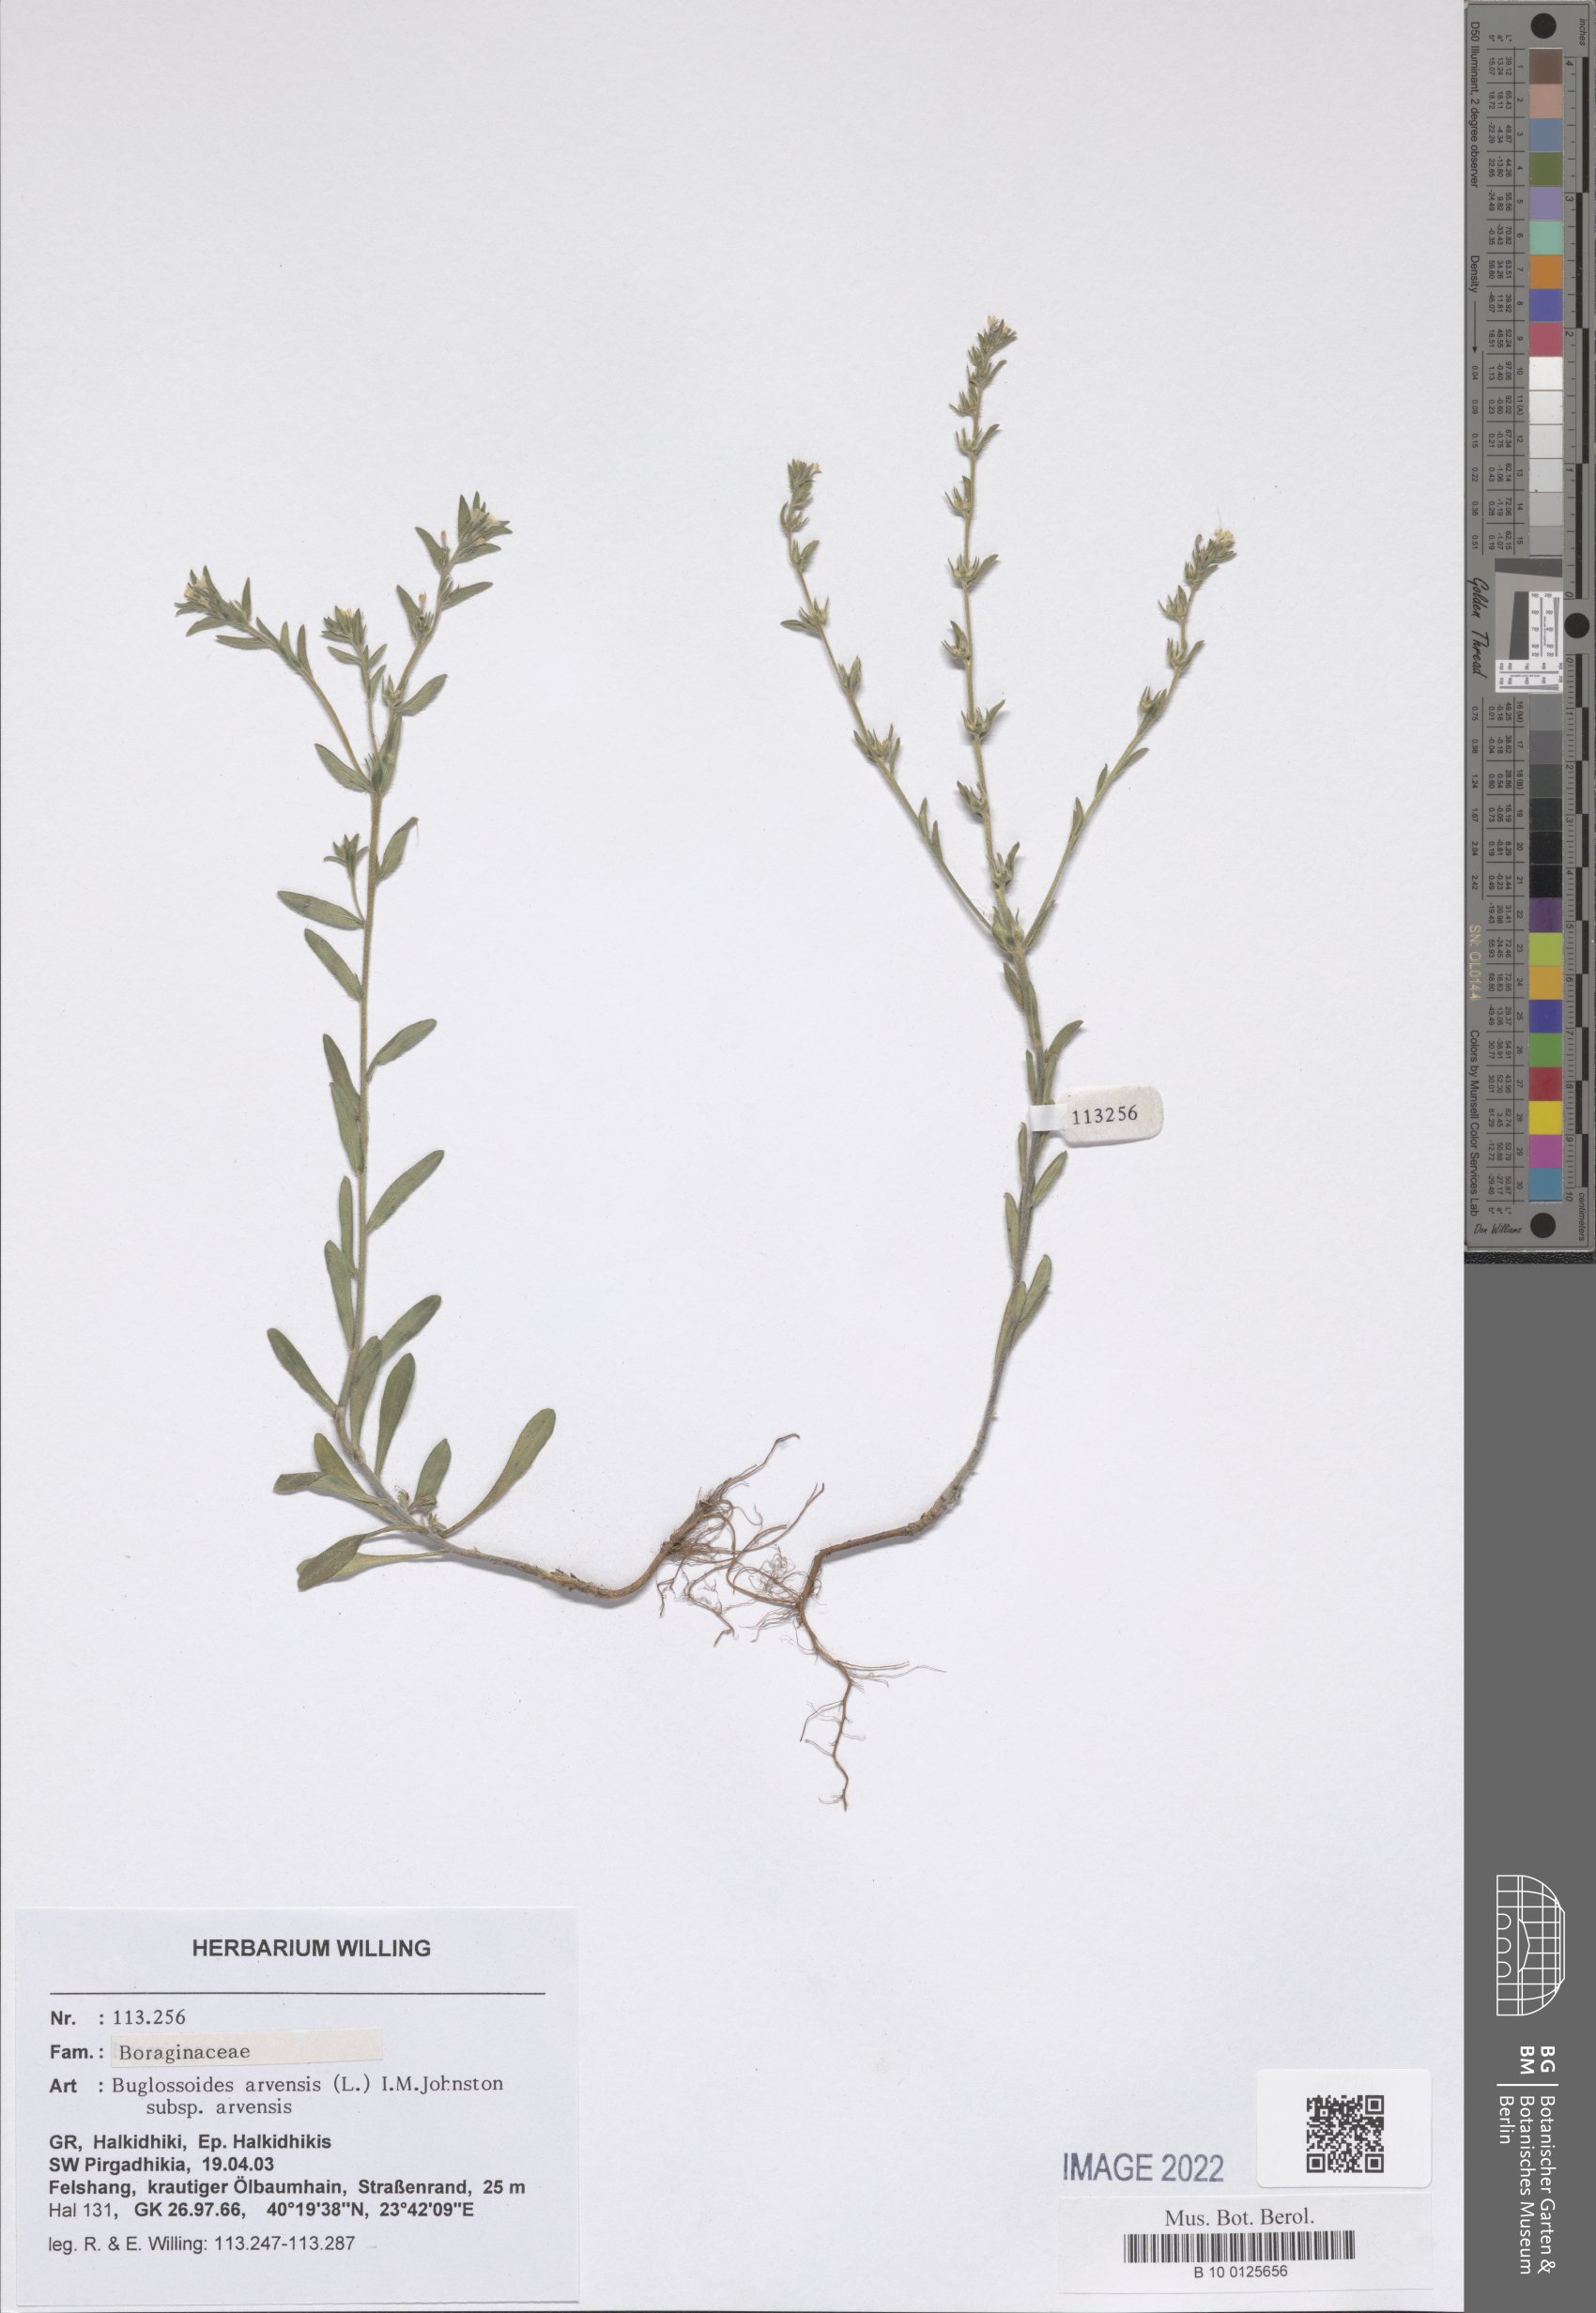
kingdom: Plantae
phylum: Tracheophyta
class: Magnoliopsida
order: Boraginales
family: Boraginaceae
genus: Buglossoides
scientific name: Buglossoides arvensis
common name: Corn gromwell
